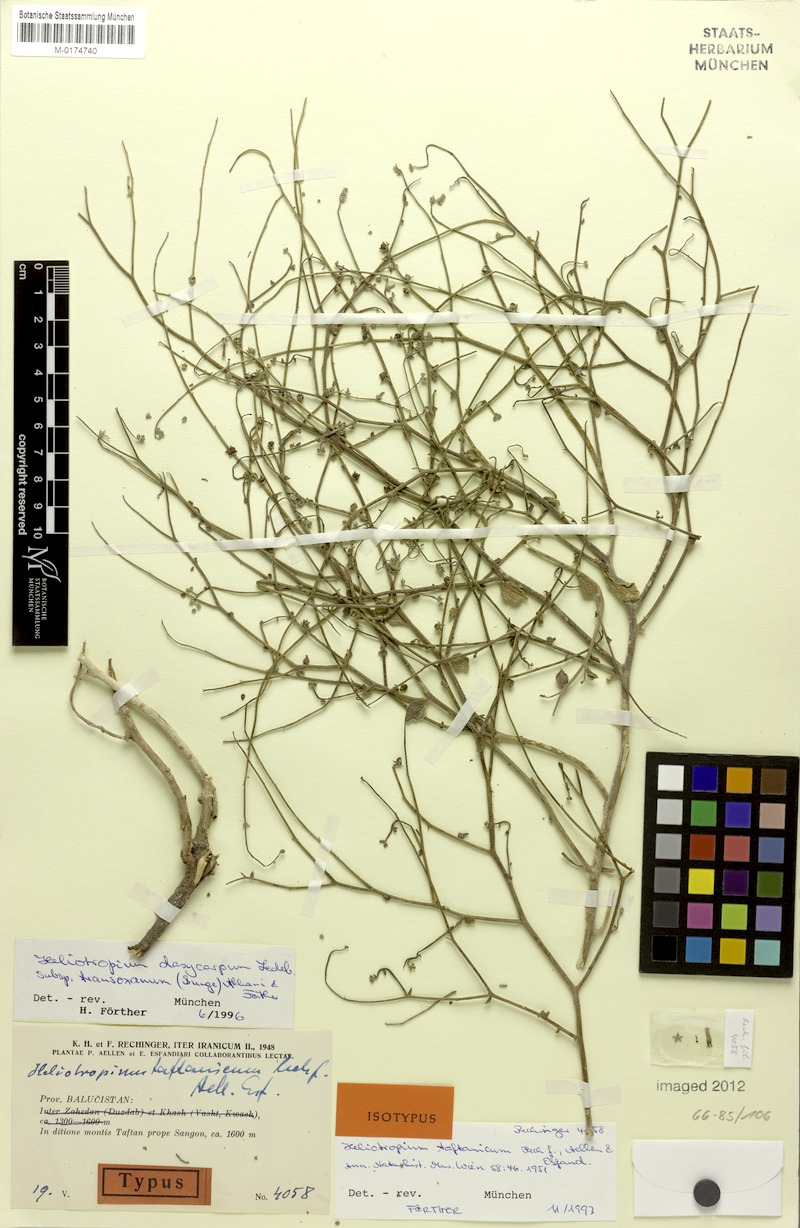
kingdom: Plantae
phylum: Tracheophyta
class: Magnoliopsida
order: Boraginales
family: Heliotropiaceae
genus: Heliotropium
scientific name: Heliotropium dasycarpum
